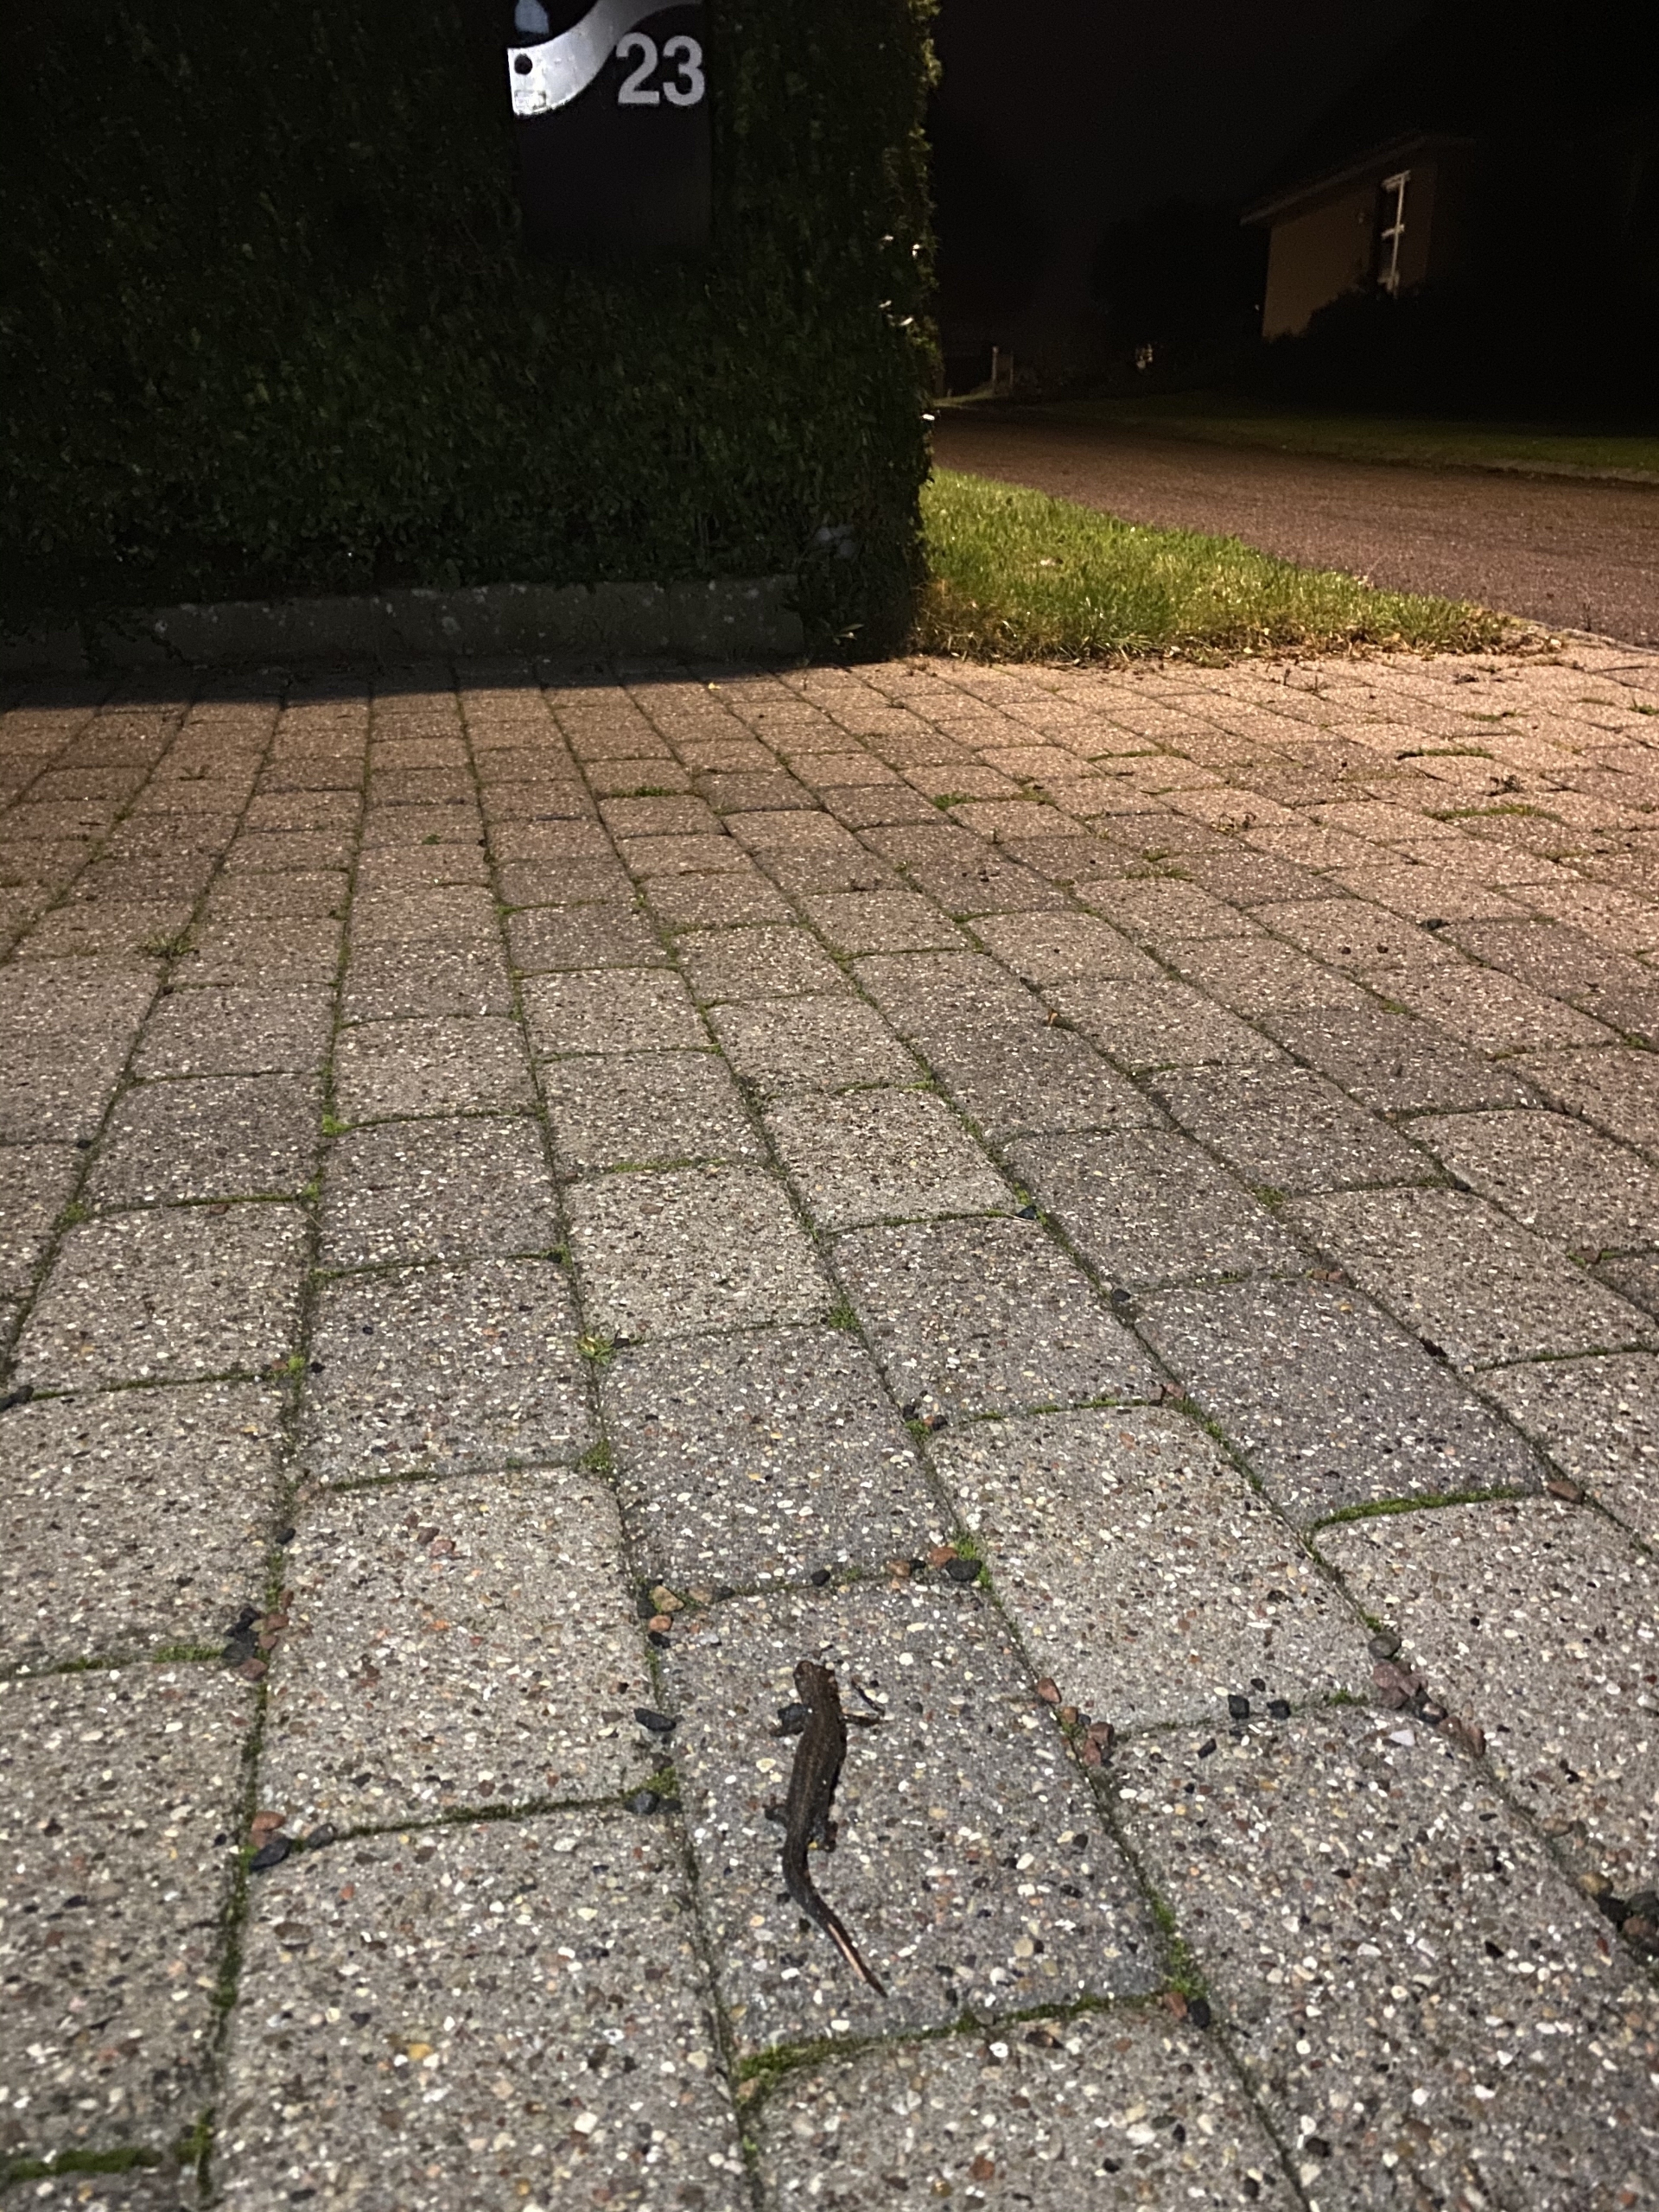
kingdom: Animalia
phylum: Chordata
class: Amphibia
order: Caudata
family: Salamandridae
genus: Triturus
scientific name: Triturus cristatus
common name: Stor vandsalamander
